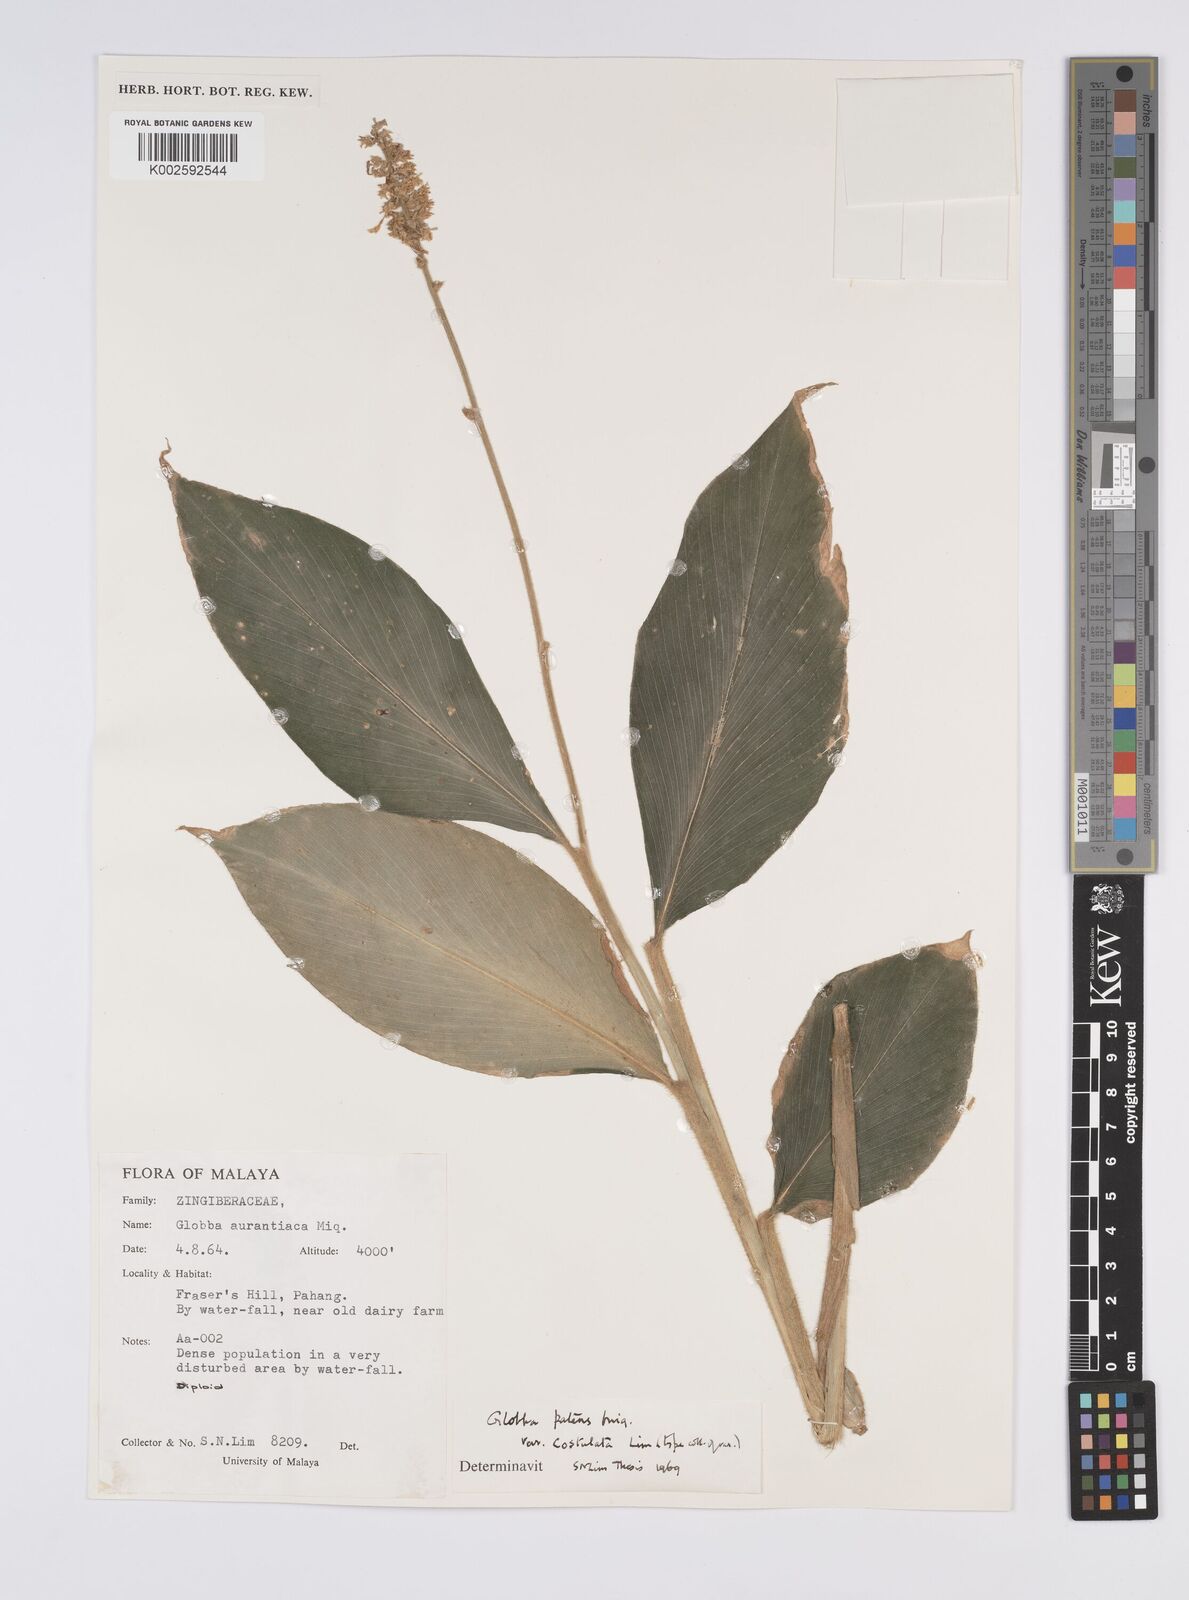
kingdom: Plantae
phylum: Tracheophyta
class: Liliopsida
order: Zingiberales
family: Zingiberaceae
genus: Globba
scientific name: Globba patens
